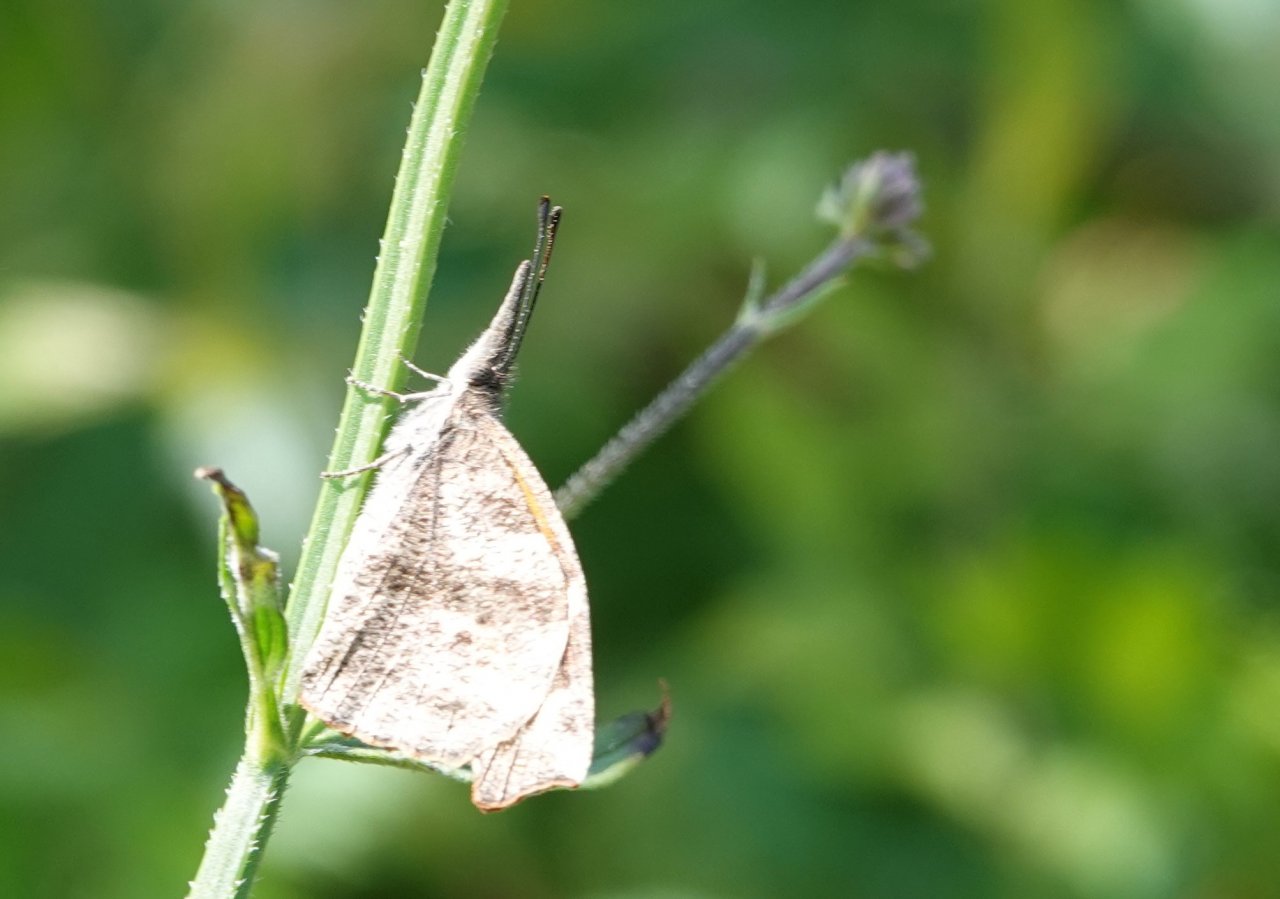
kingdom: Animalia
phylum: Arthropoda
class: Insecta
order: Lepidoptera
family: Nymphalidae
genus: Libytheana
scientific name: Libytheana carinenta
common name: American Snout
